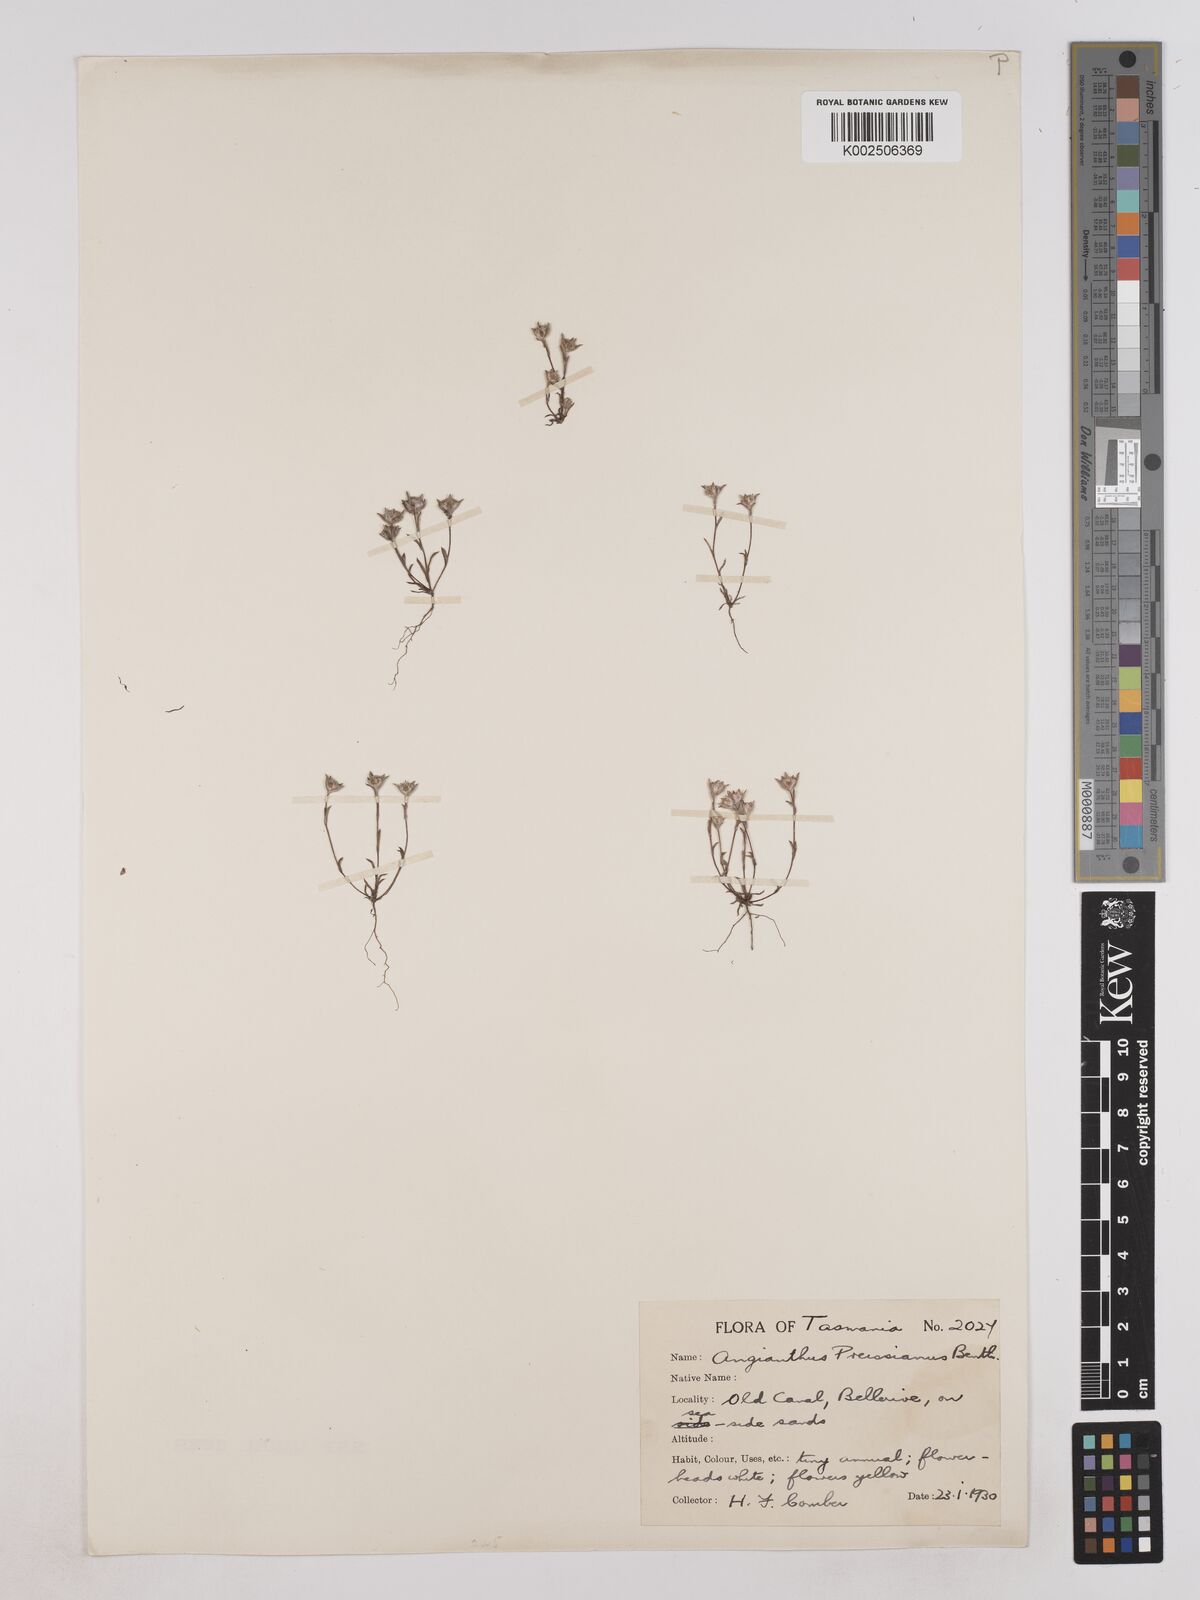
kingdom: Plantae
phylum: Tracheophyta
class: Magnoliopsida
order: Asterales
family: Asteraceae
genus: Angianthus
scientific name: Angianthus preissianus
